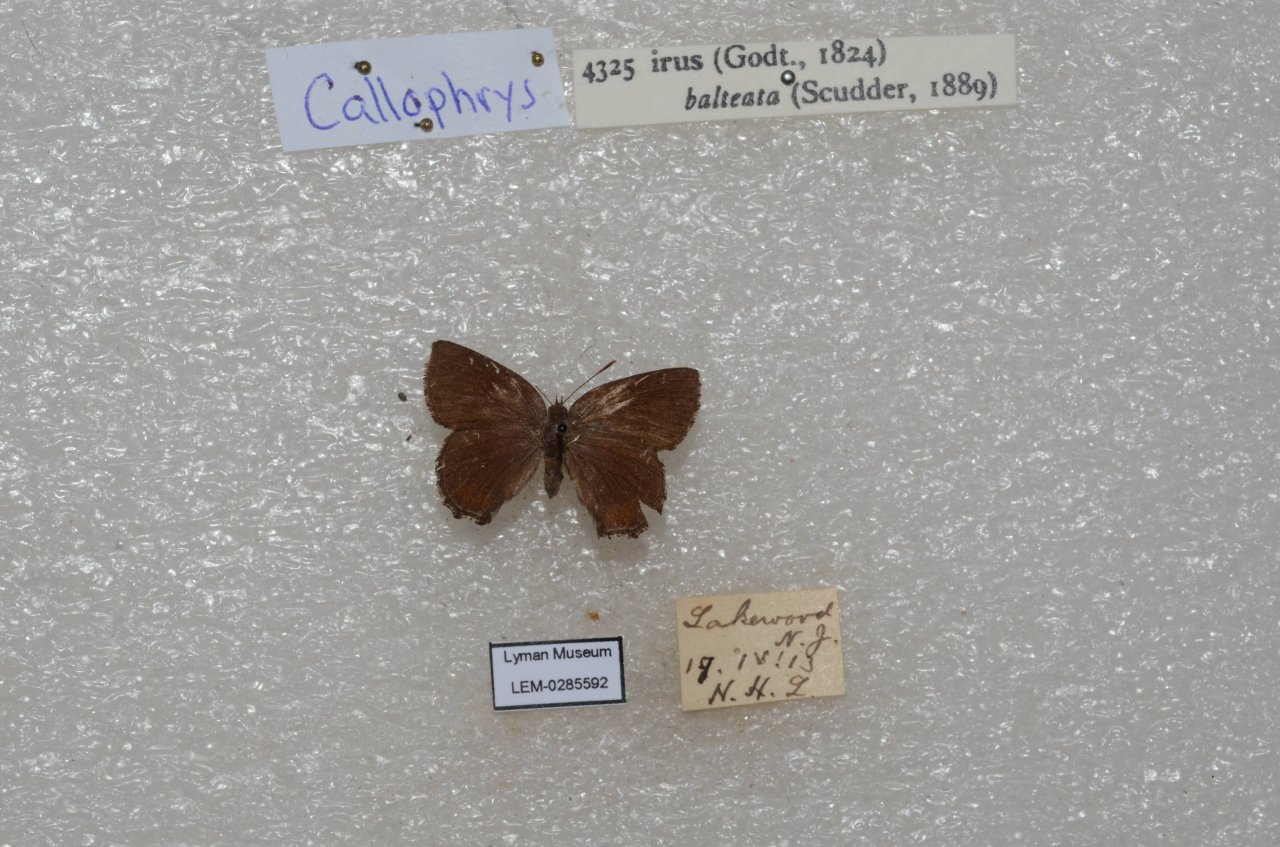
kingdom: Animalia
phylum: Arthropoda
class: Insecta
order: Lepidoptera
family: Lycaenidae
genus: Thecla
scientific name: Thecla irus
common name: Frosted Elfin
